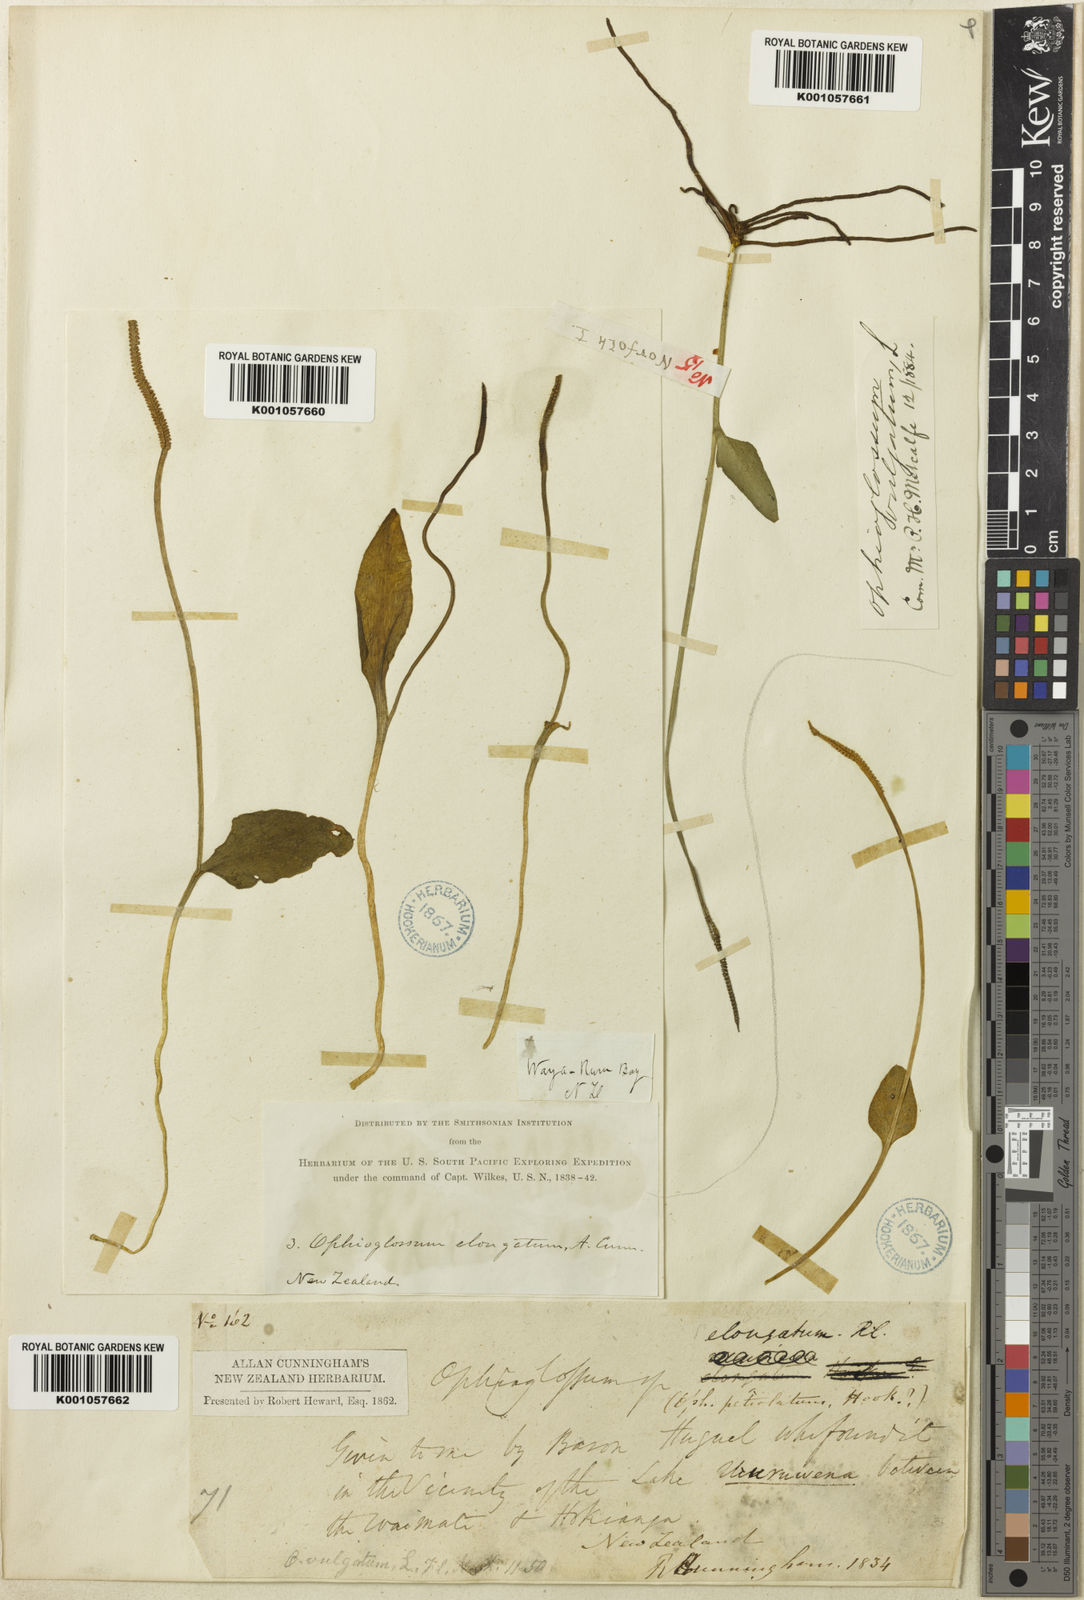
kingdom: Plantae
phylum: Tracheophyta
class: Polypodiopsida
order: Ophioglossales
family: Ophioglossaceae
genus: Ophioglossum
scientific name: Ophioglossum petiolatum
